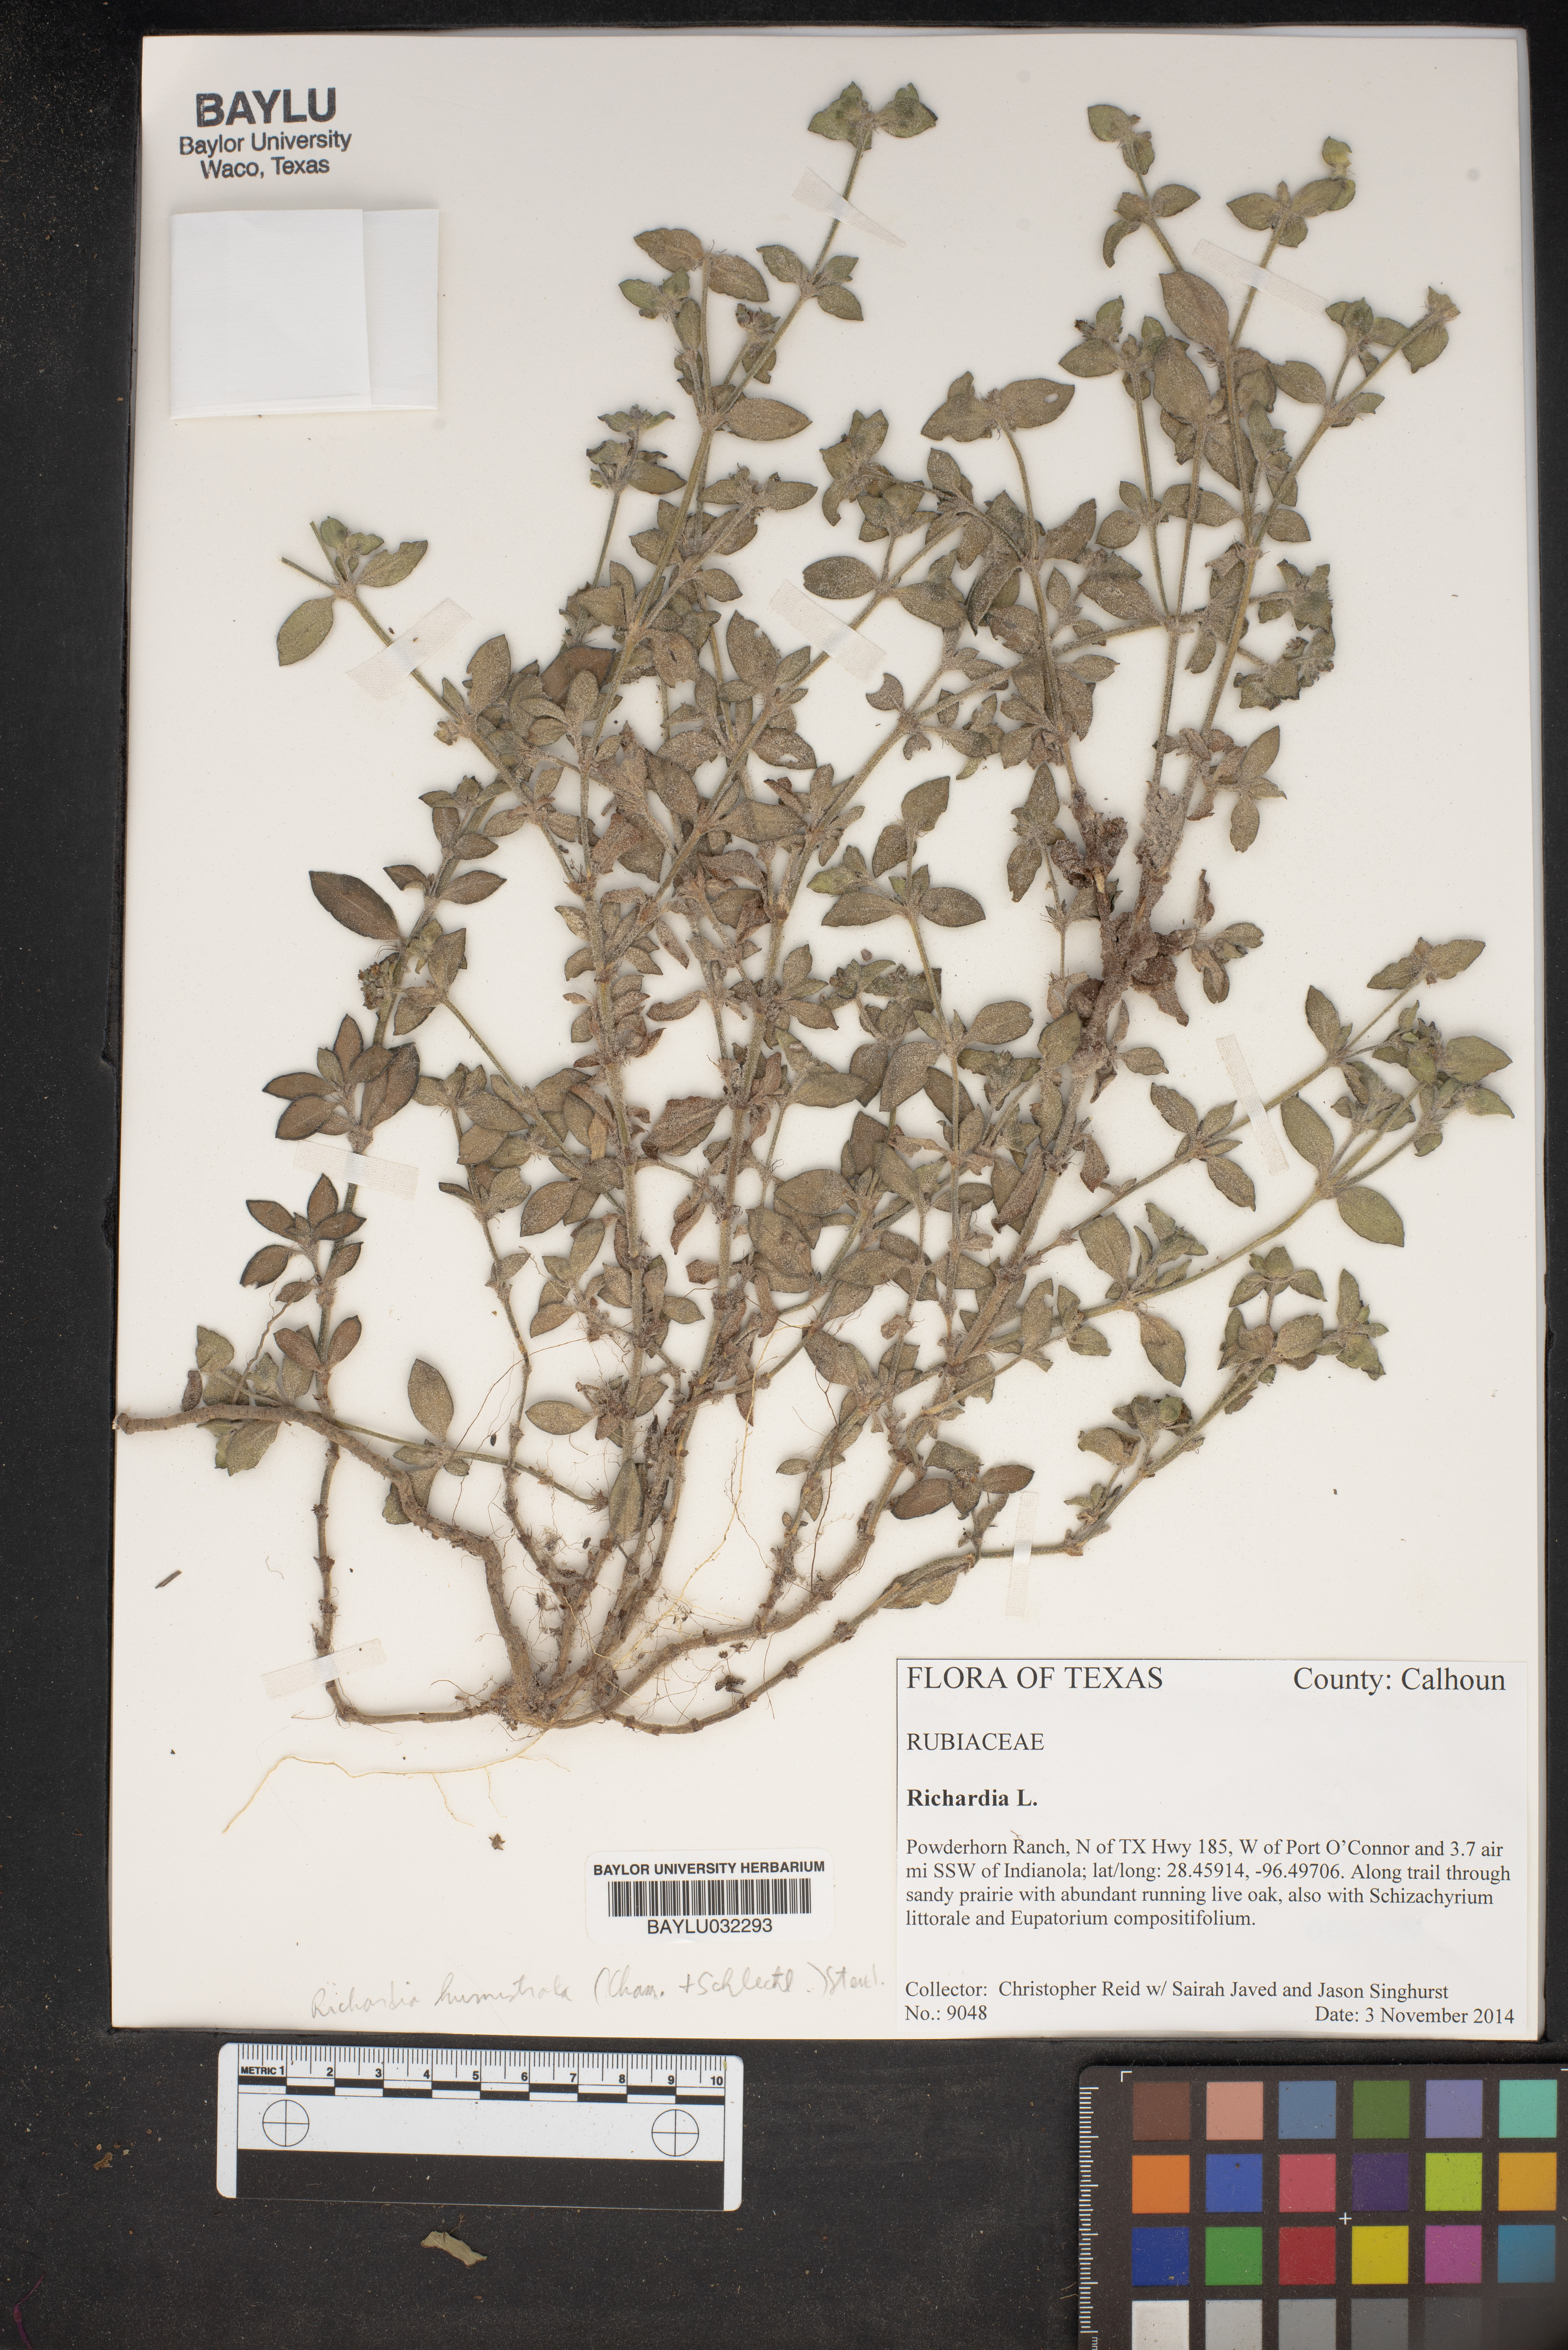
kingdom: Plantae
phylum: Tracheophyta
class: Magnoliopsida
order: Gentianales
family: Rubiaceae
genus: Richardia
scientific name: Richardia humistrata
